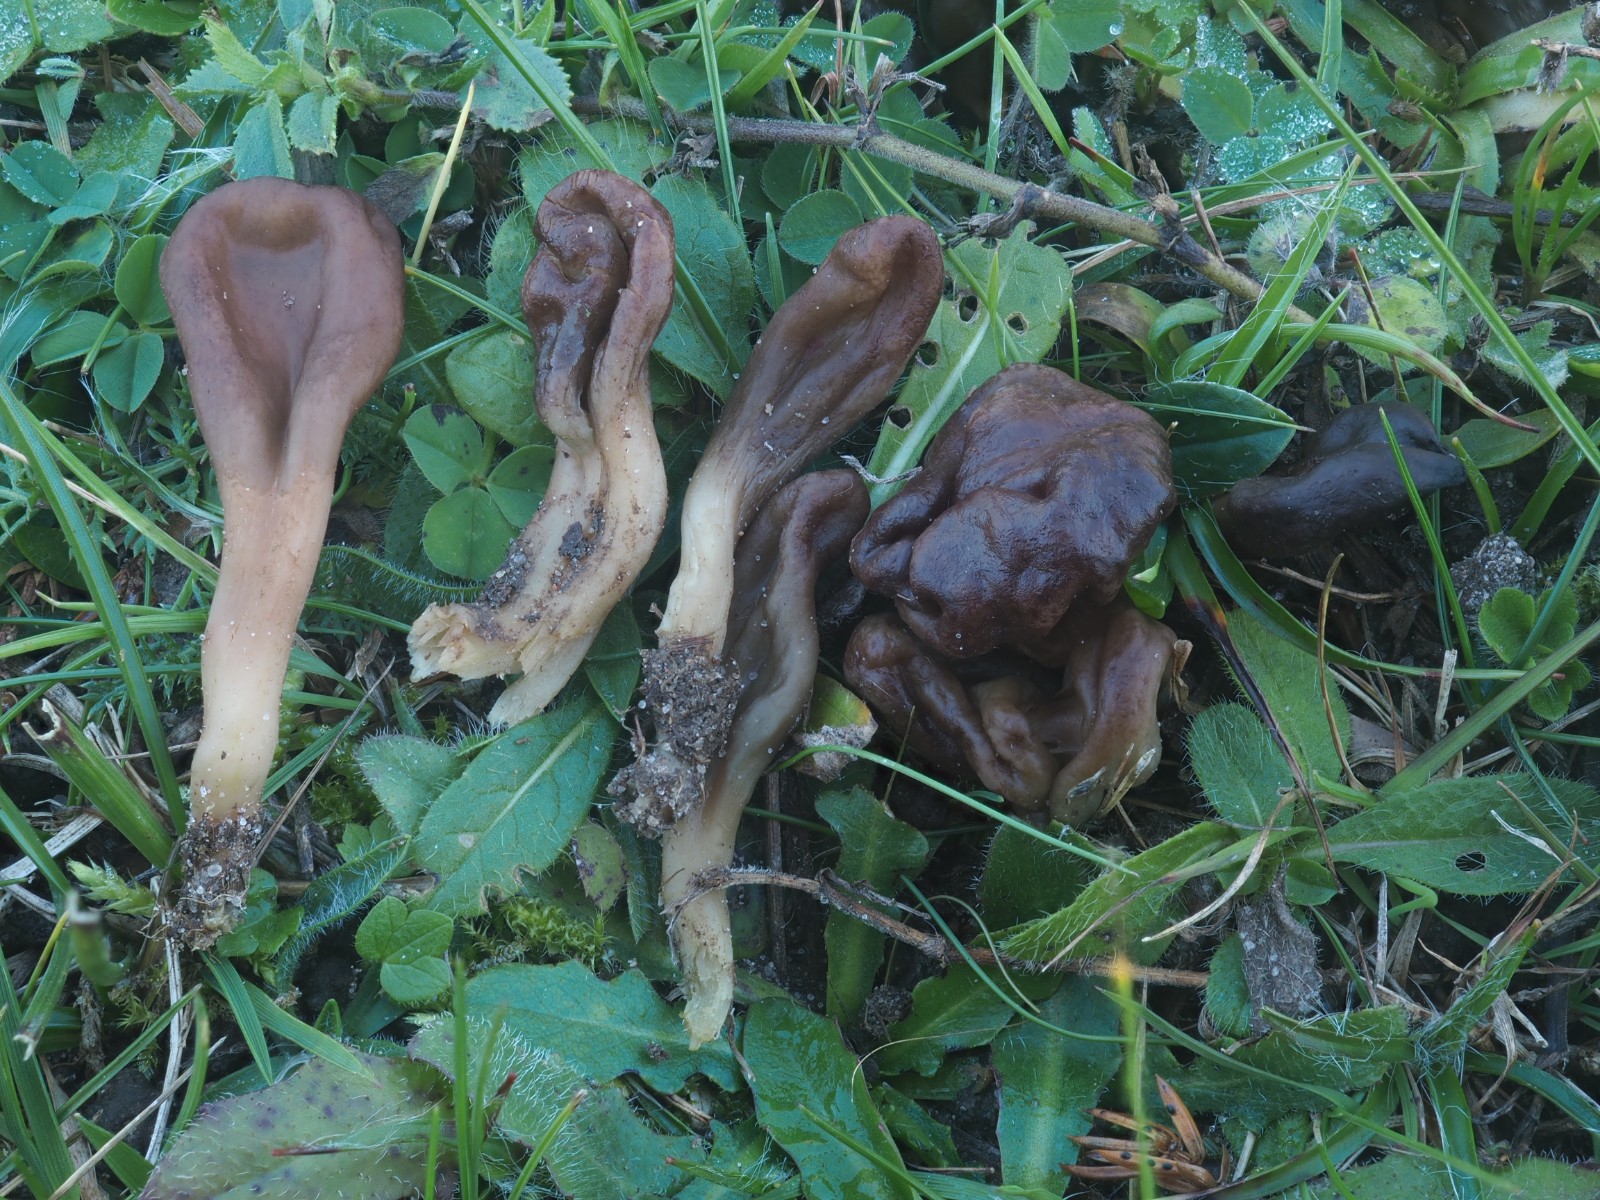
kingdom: Fungi
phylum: Ascomycota
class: Leotiomycetes
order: Leotiales
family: Leotiaceae
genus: Microglossum
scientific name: Microglossum olivaceum
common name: olivenbrun farvetunge
